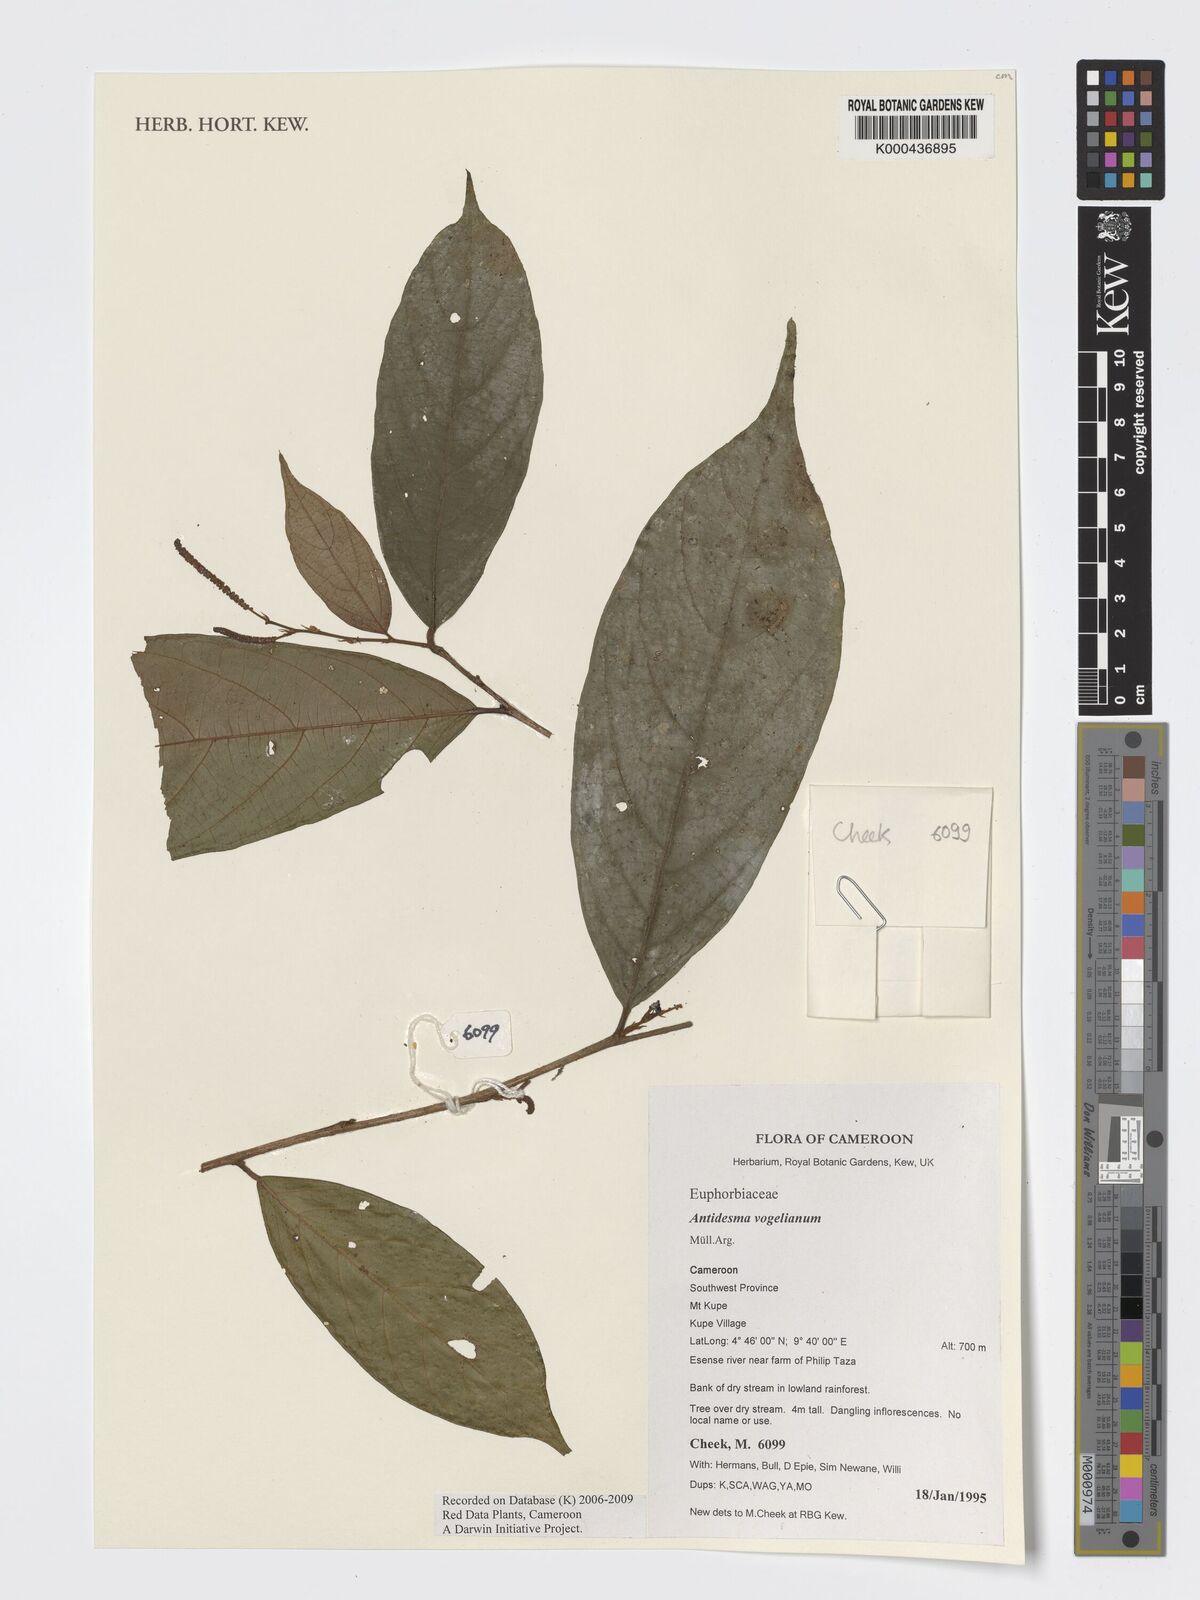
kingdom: Plantae
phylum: Tracheophyta
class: Magnoliopsida
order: Malpighiales
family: Phyllanthaceae
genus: Antidesma
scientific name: Antidesma vogelianum
